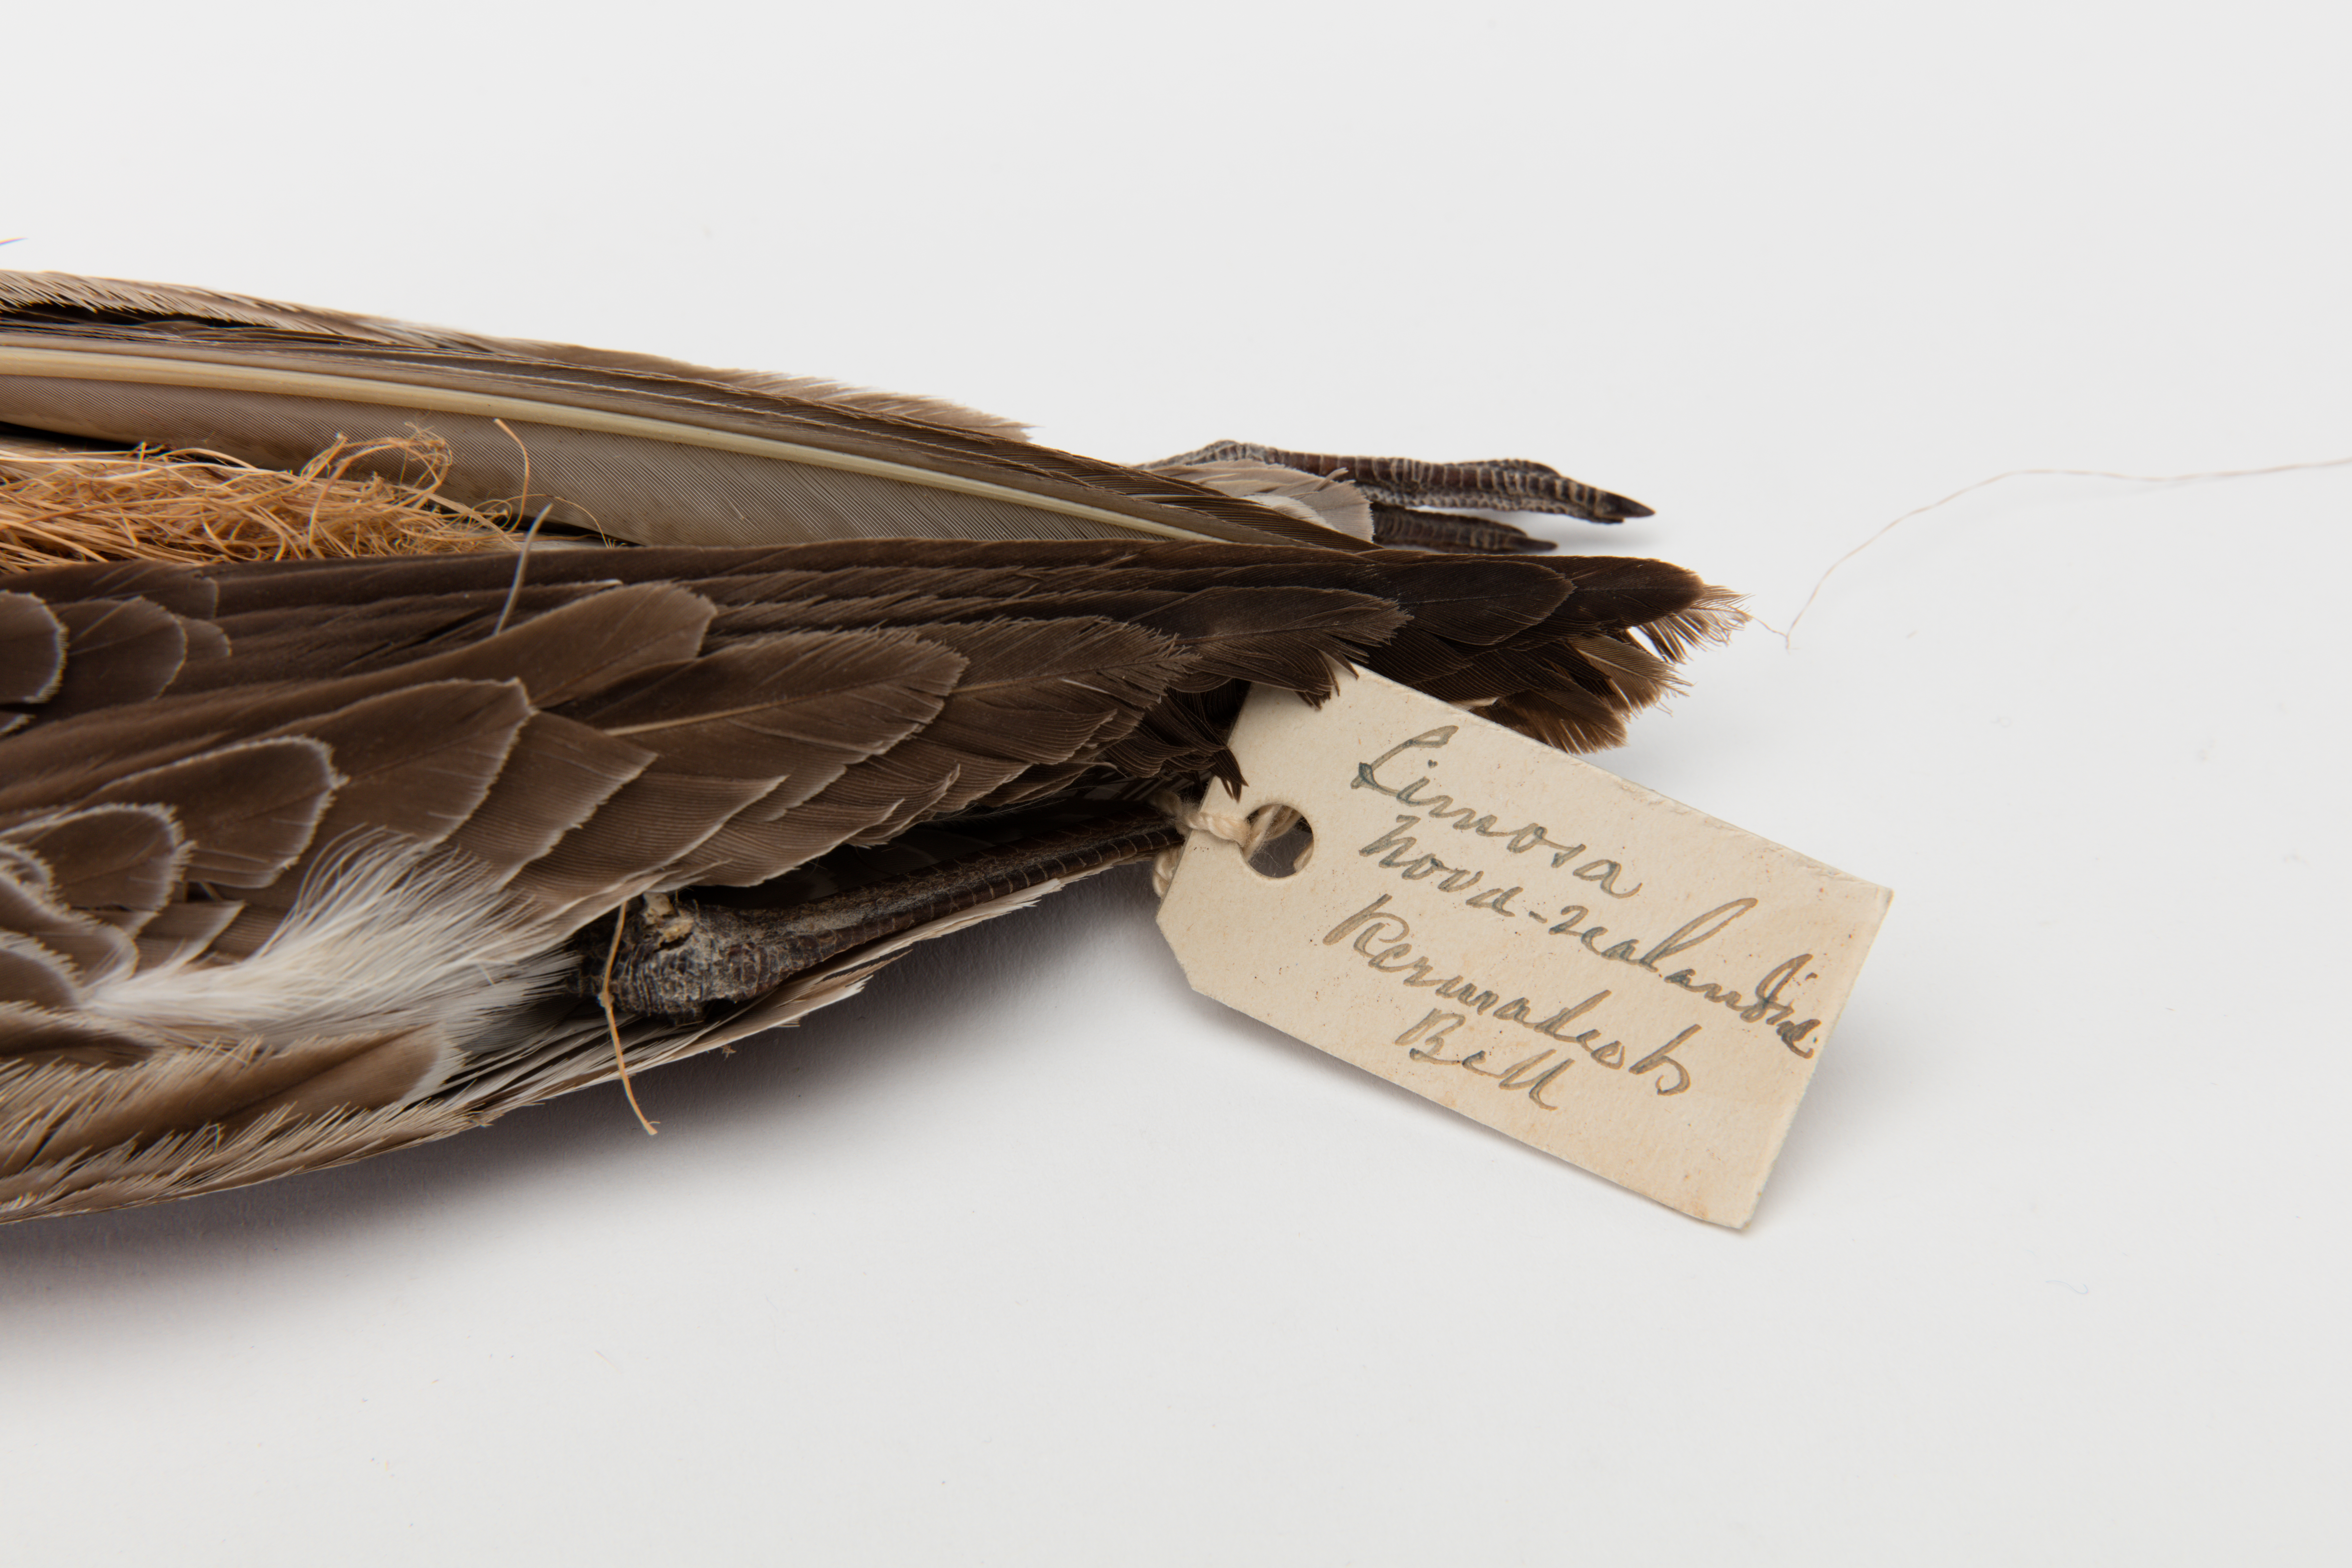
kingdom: Animalia
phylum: Chordata
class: Aves
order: Charadriiformes
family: Scolopacidae
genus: Limosa
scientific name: Limosa lapponica
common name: Bar-tailed godwit
